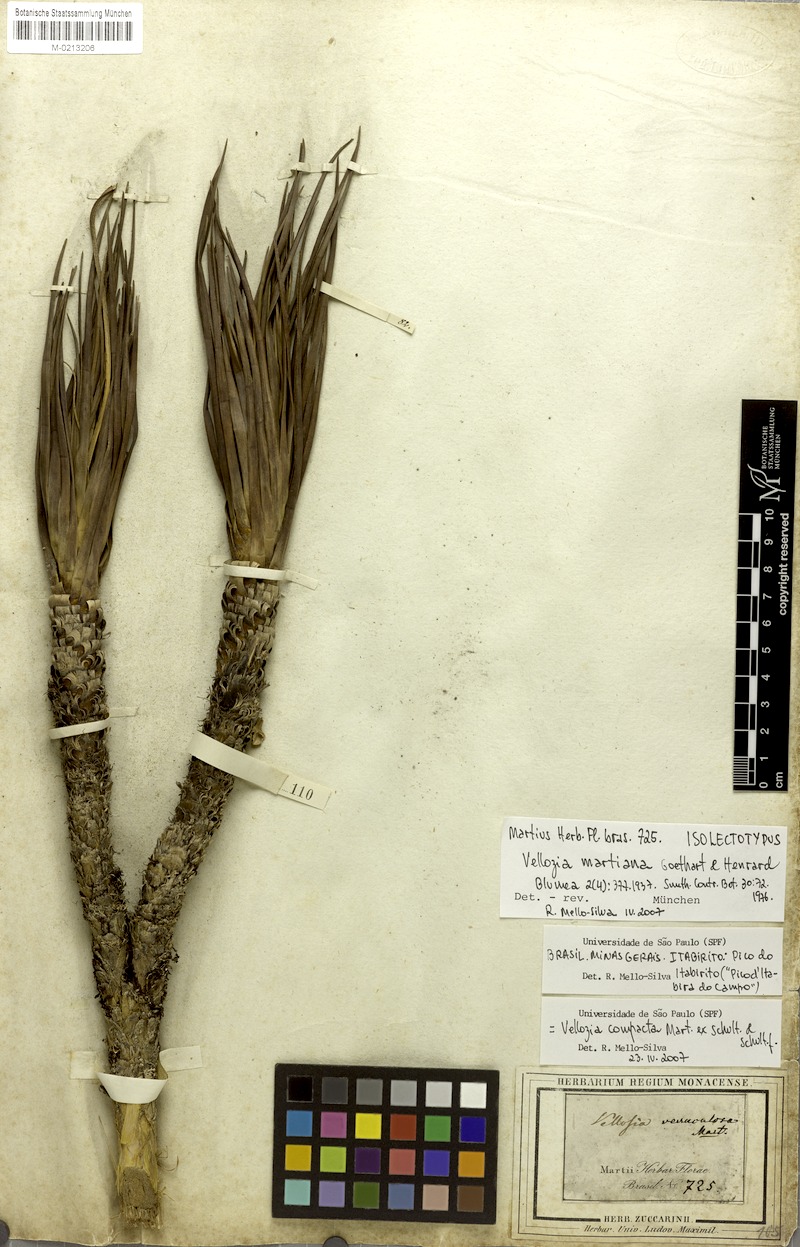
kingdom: Plantae
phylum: Tracheophyta
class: Liliopsida
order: Pandanales
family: Velloziaceae
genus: Vellozia
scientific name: Vellozia compacta
